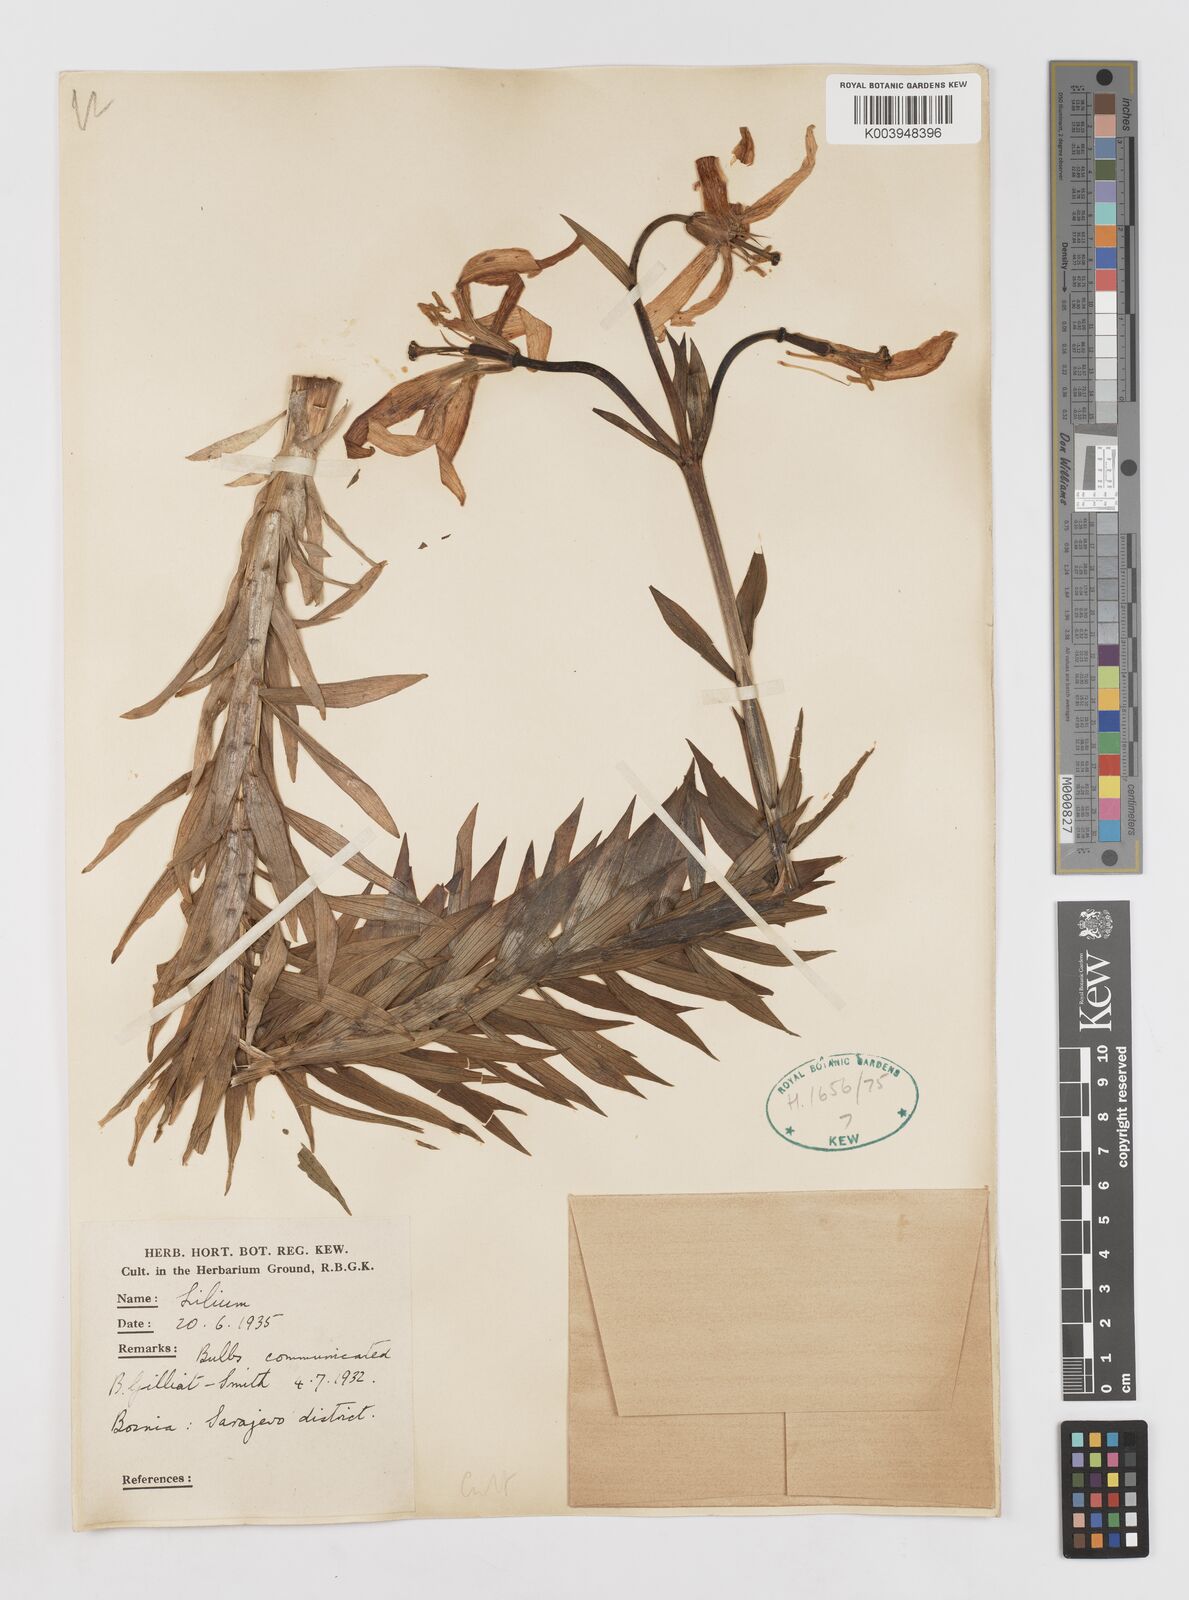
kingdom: Plantae
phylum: Tracheophyta
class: Liliopsida
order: Liliales
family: Liliaceae
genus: Lilium
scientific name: Lilium bosniacum
